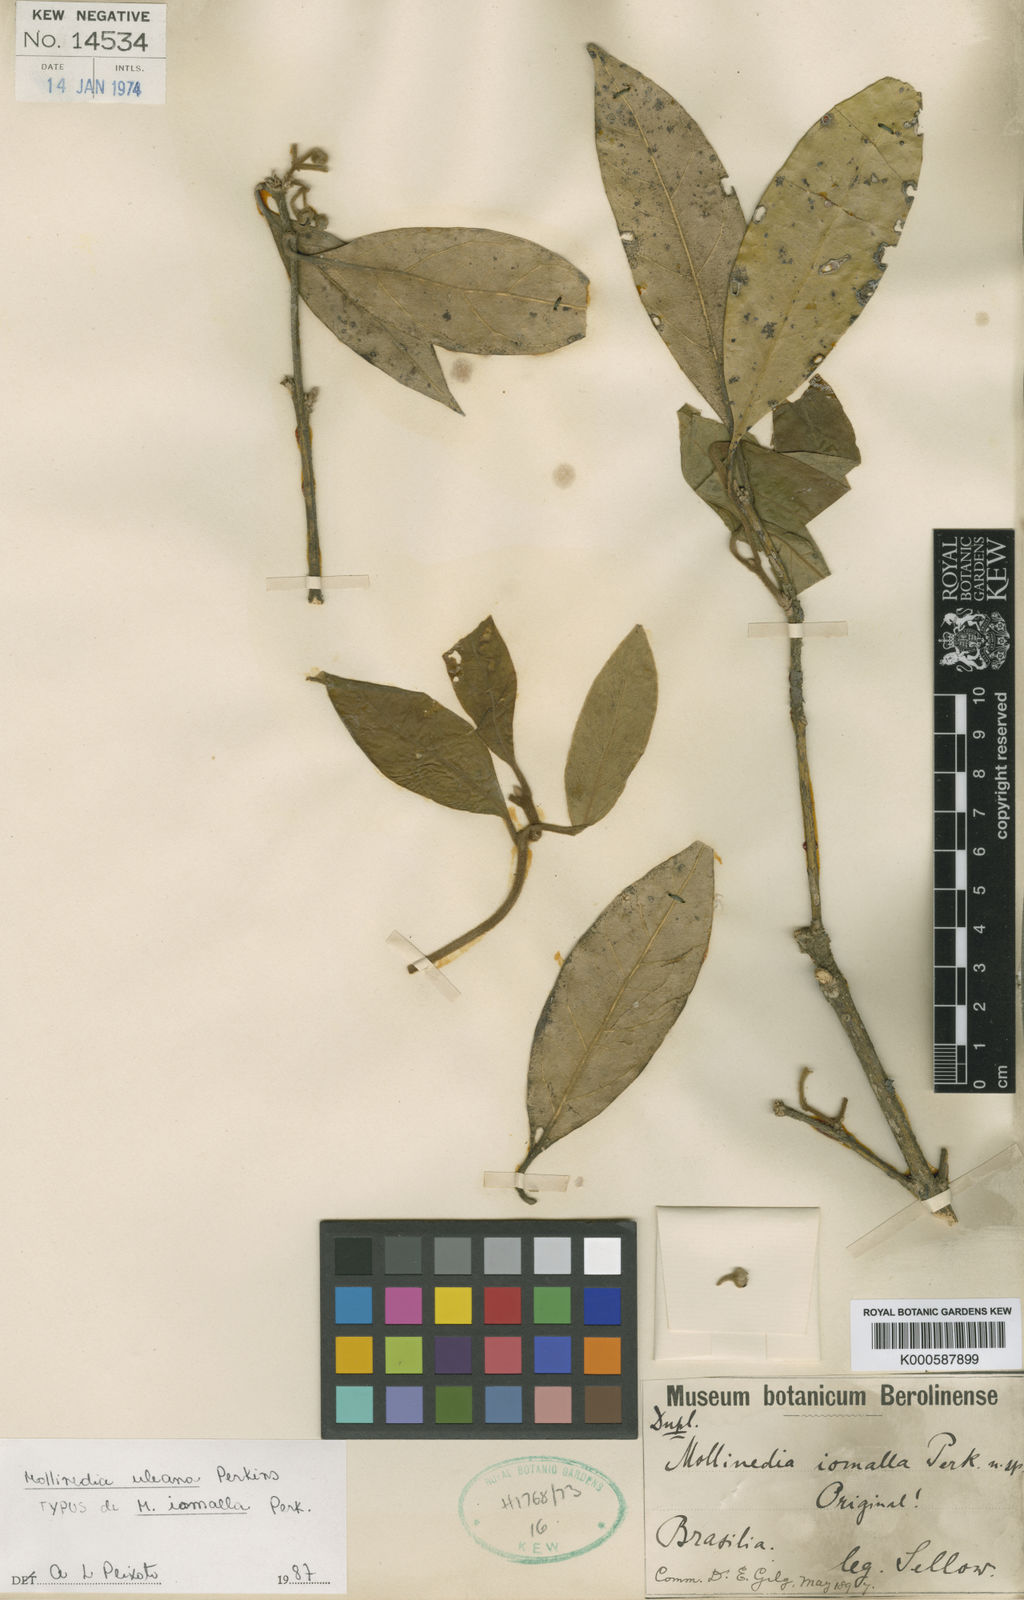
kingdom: Plantae
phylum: Tracheophyta
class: Magnoliopsida
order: Laurales
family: Monimiaceae
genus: Mollinedia
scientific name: Mollinedia uleana
